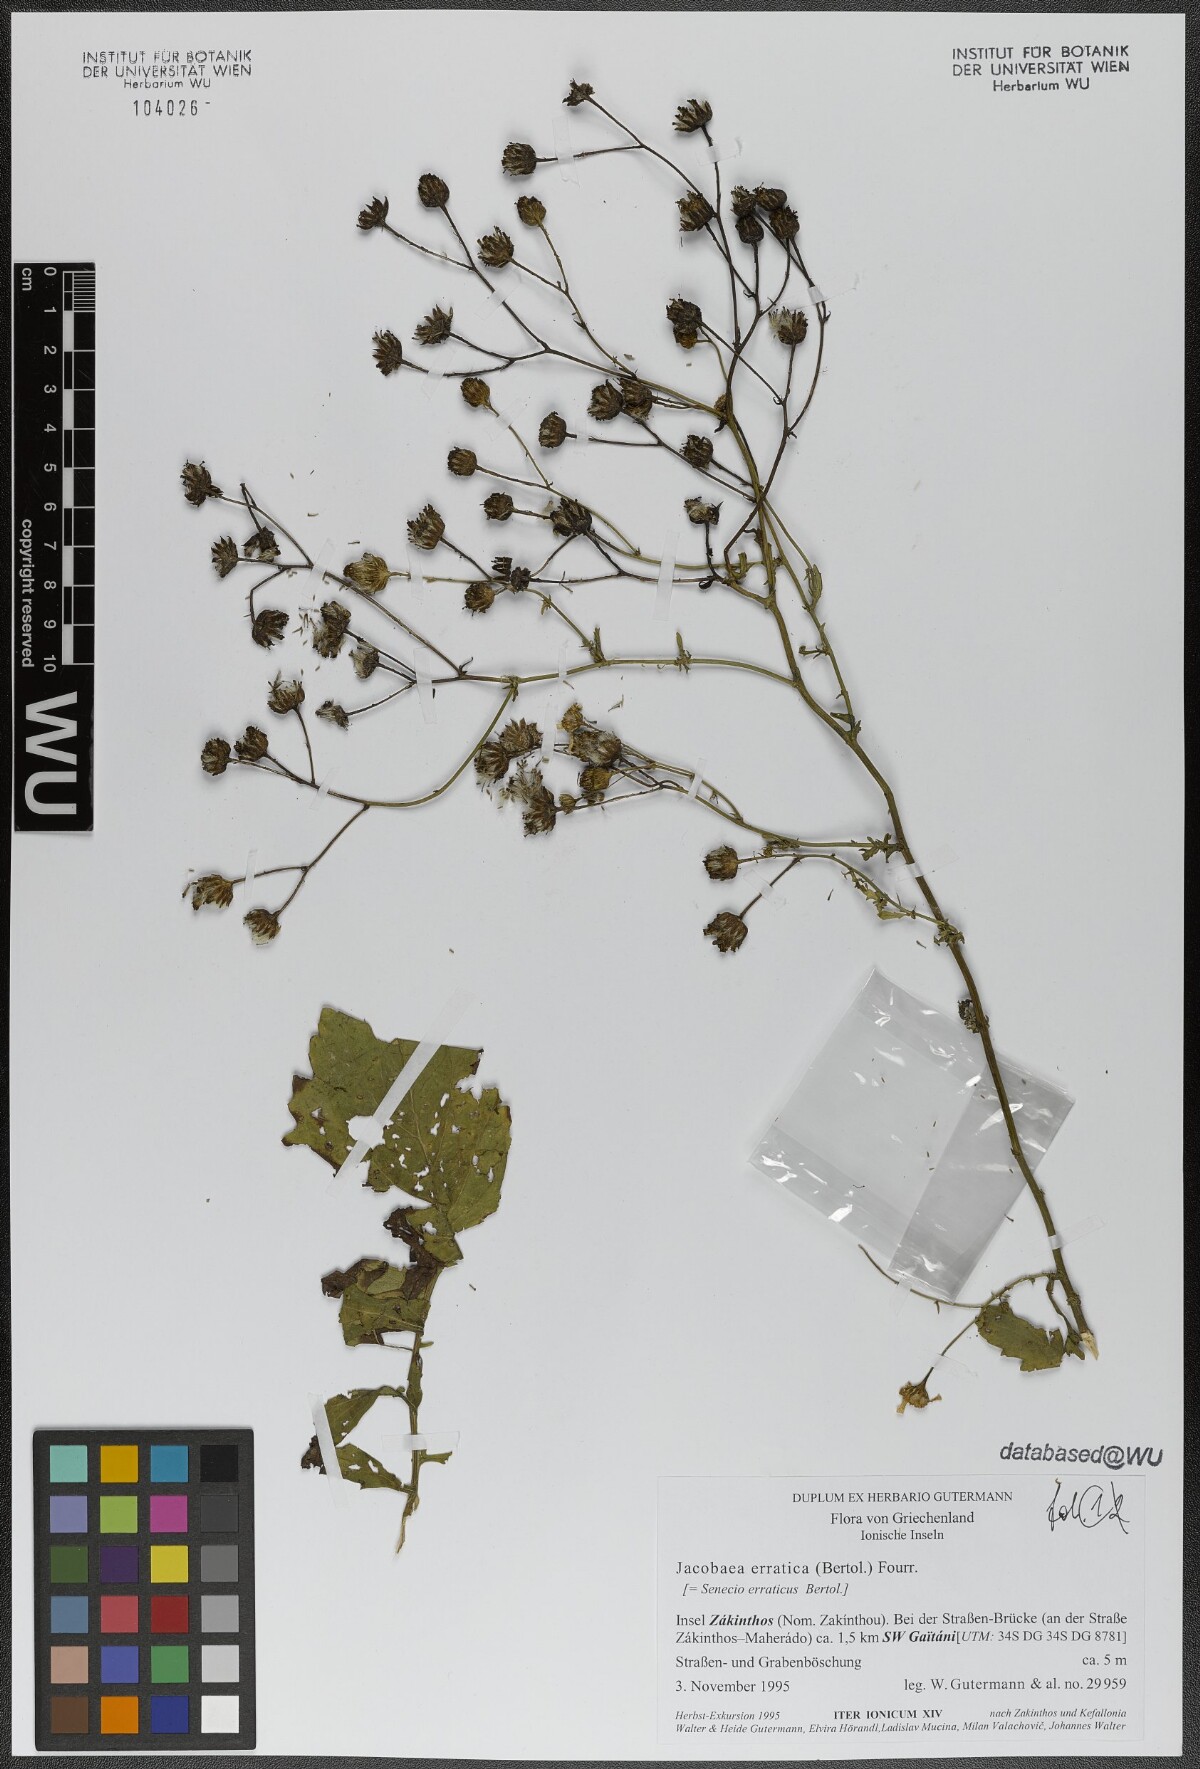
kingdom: Plantae
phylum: Tracheophyta
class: Magnoliopsida
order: Asterales
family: Asteraceae
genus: Jacobaea
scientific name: Jacobaea erratica
